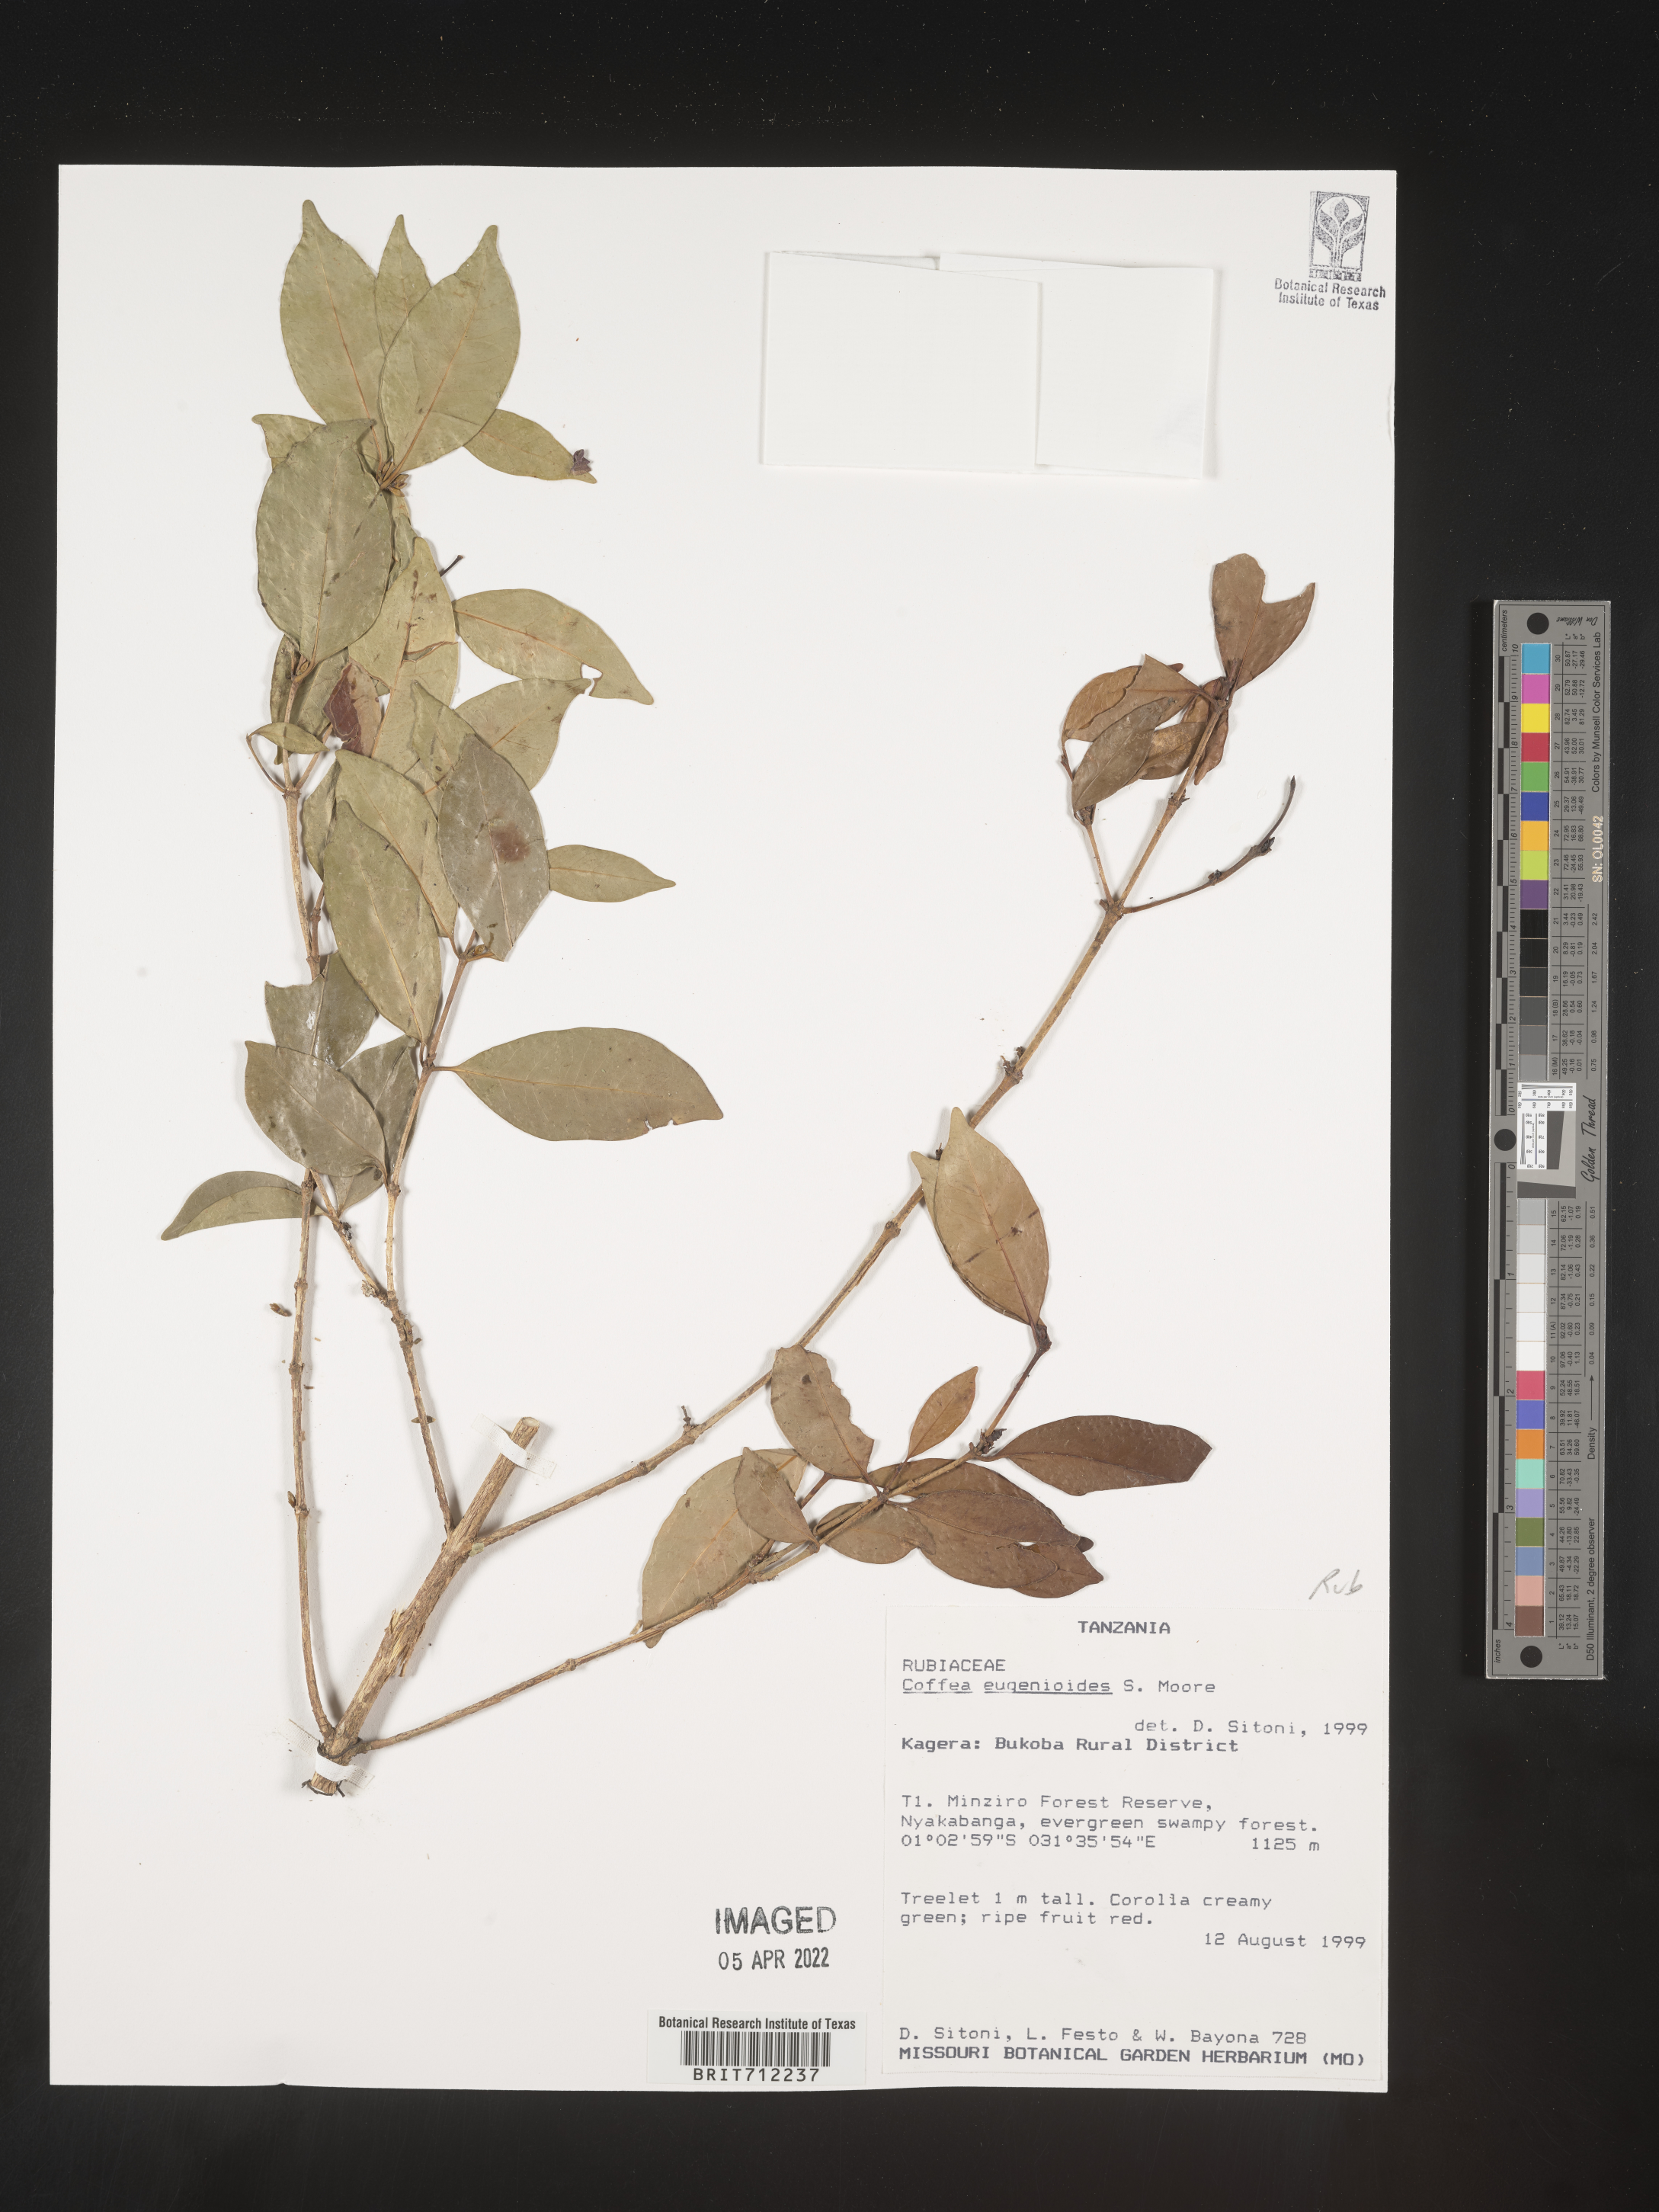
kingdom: Plantae
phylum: Tracheophyta
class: Magnoliopsida
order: Gentianales
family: Rubiaceae
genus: Coffea
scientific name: Coffea
